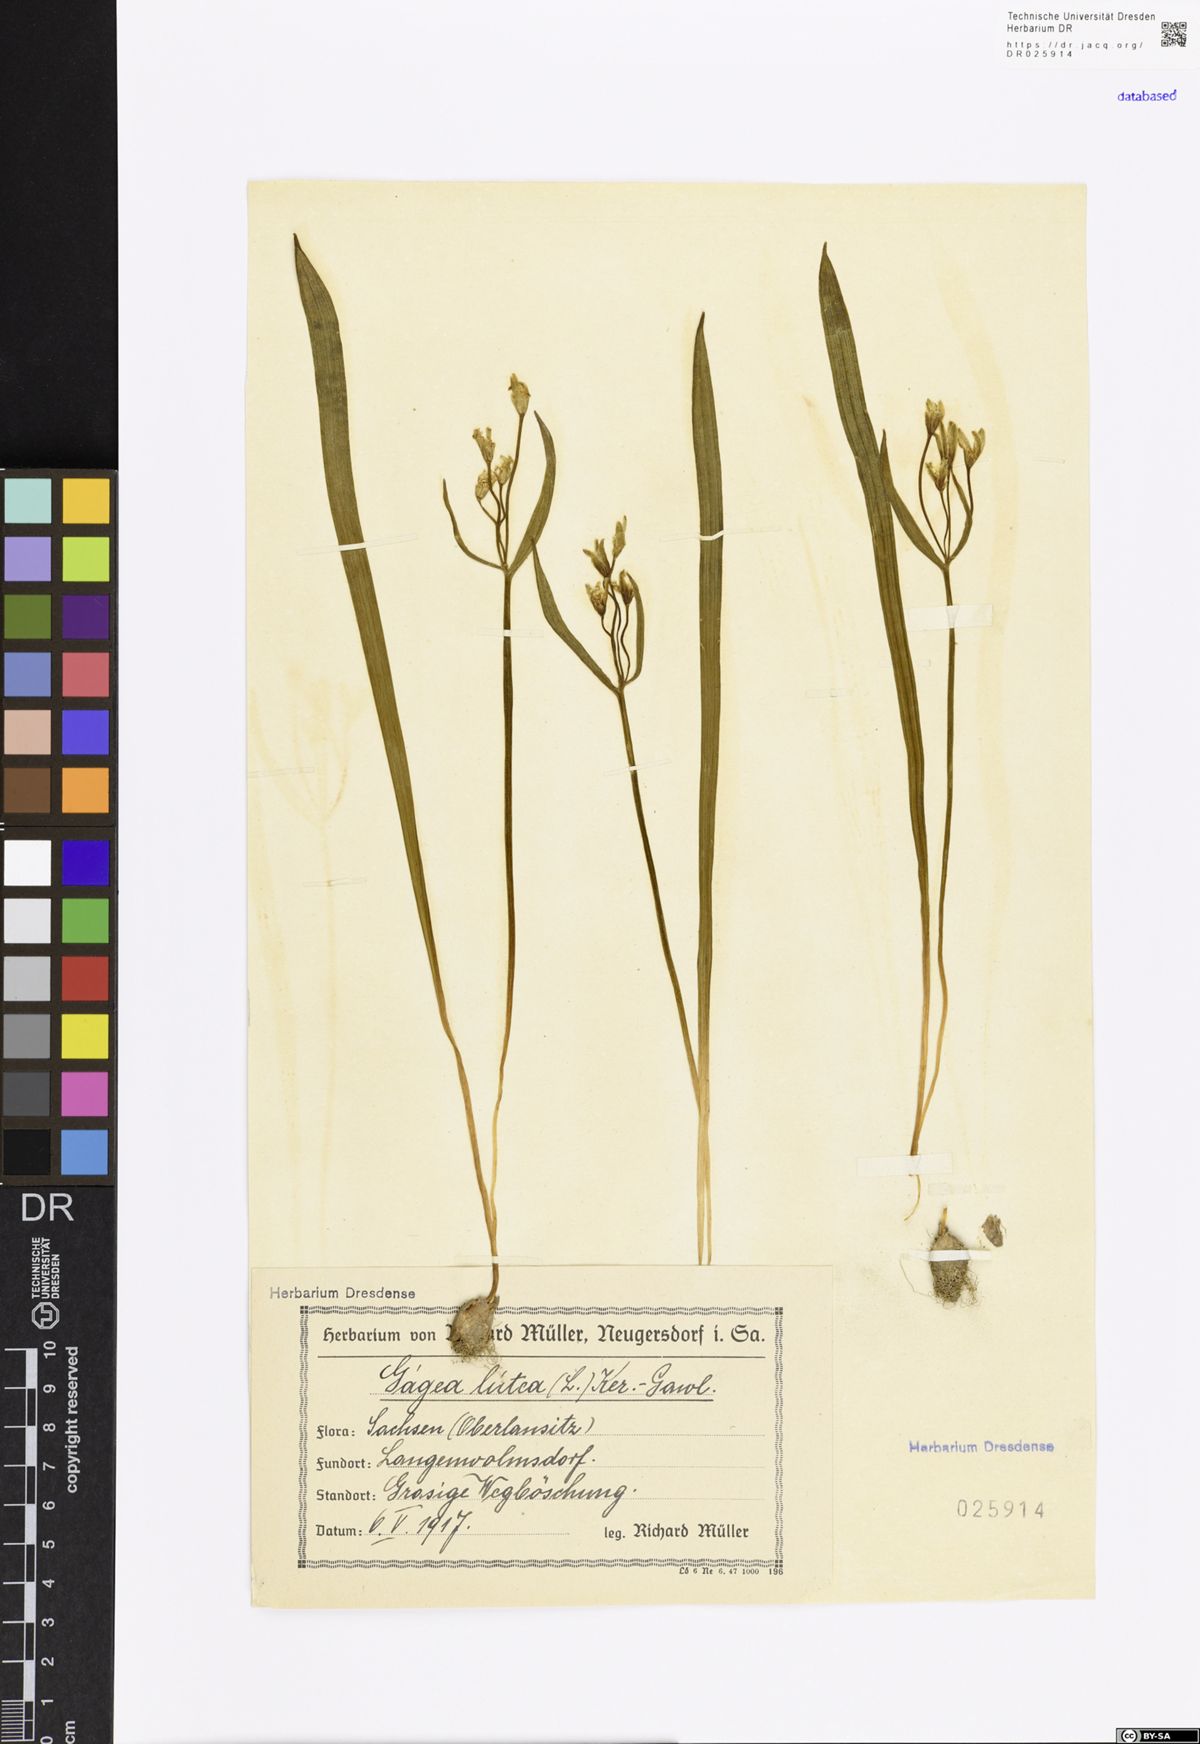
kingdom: Plantae
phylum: Tracheophyta
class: Liliopsida
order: Liliales
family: Liliaceae
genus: Gagea
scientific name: Gagea lutea
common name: Yellow star-of-bethlehem
